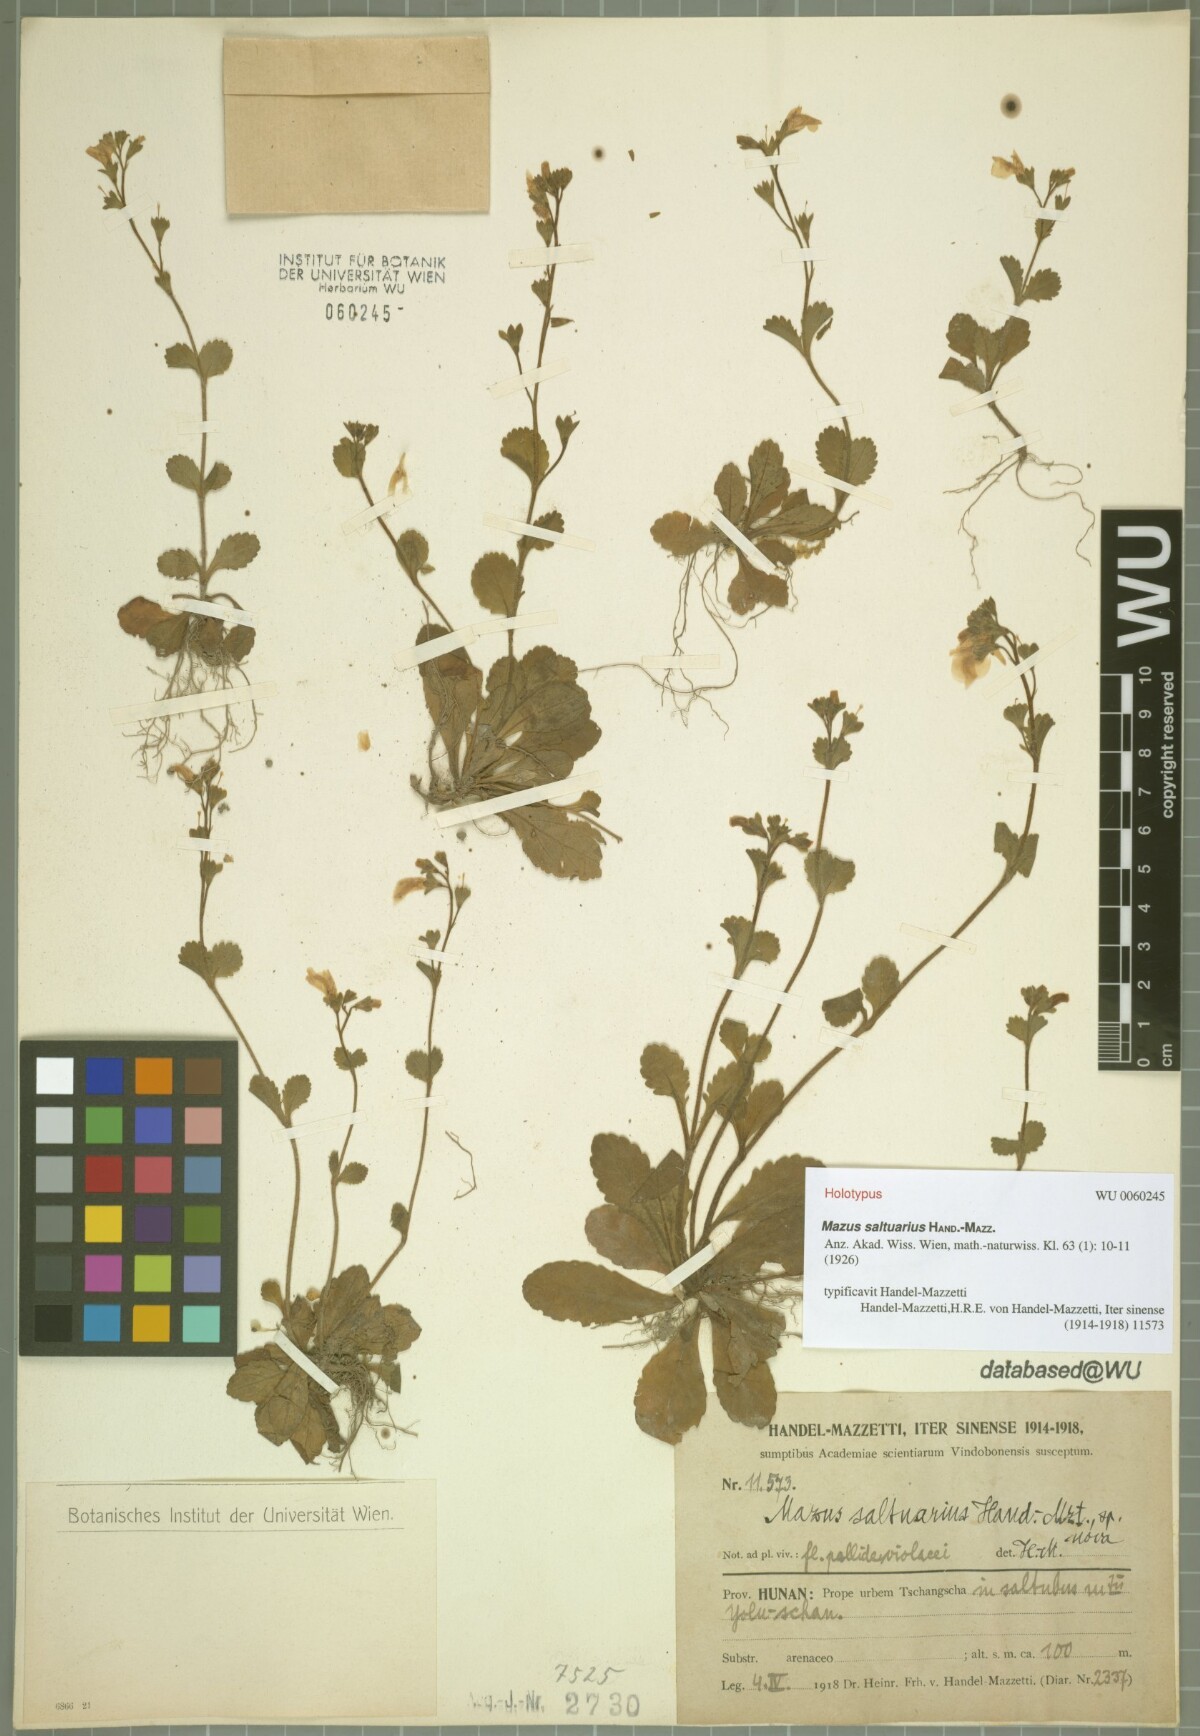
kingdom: Plantae
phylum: Tracheophyta
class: Magnoliopsida
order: Lamiales
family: Mazaceae
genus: Mazus
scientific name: Mazus saltuarius
